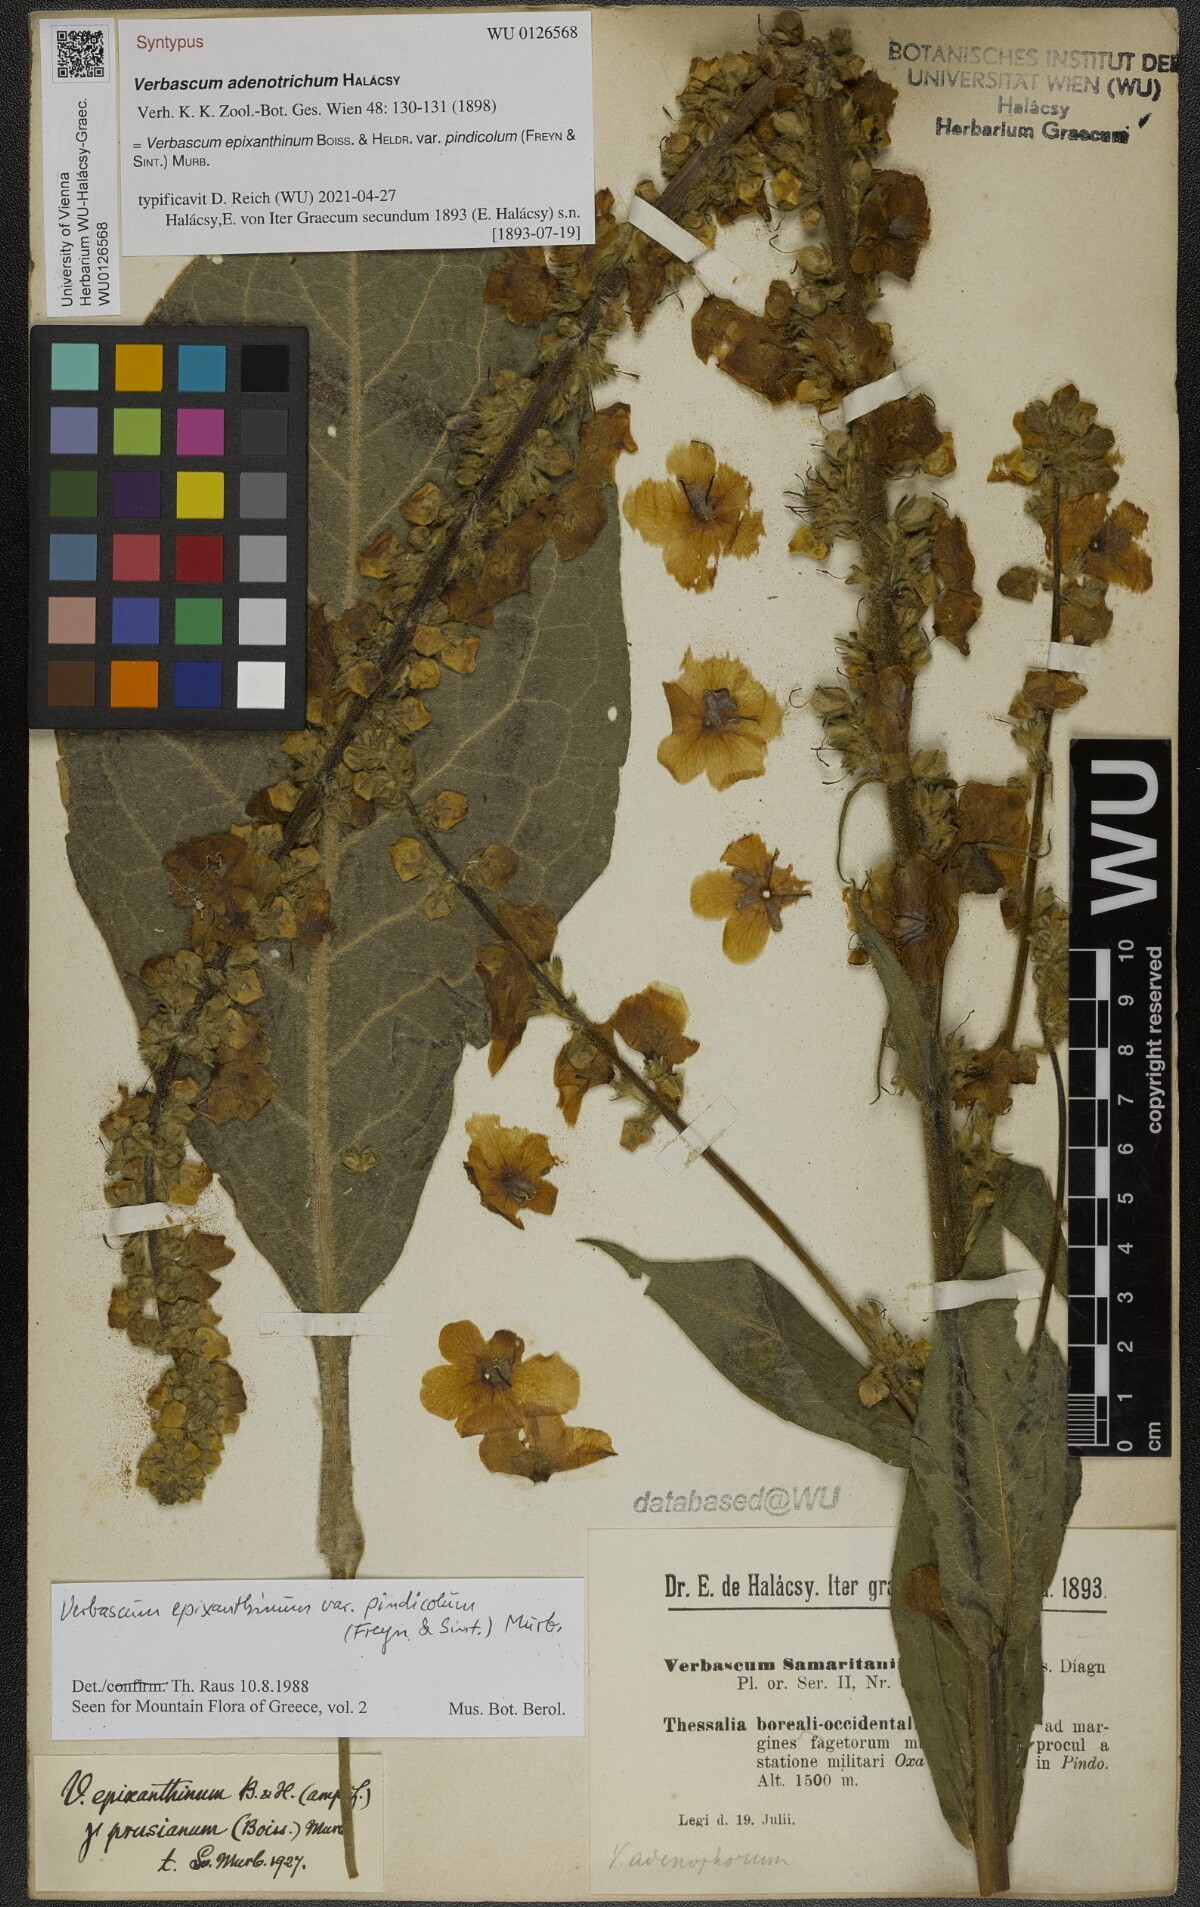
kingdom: Plantae
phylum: Tracheophyta
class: Magnoliopsida
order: Lamiales
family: Scrophulariaceae
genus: Verbascum
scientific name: Verbascum epixanthinum
